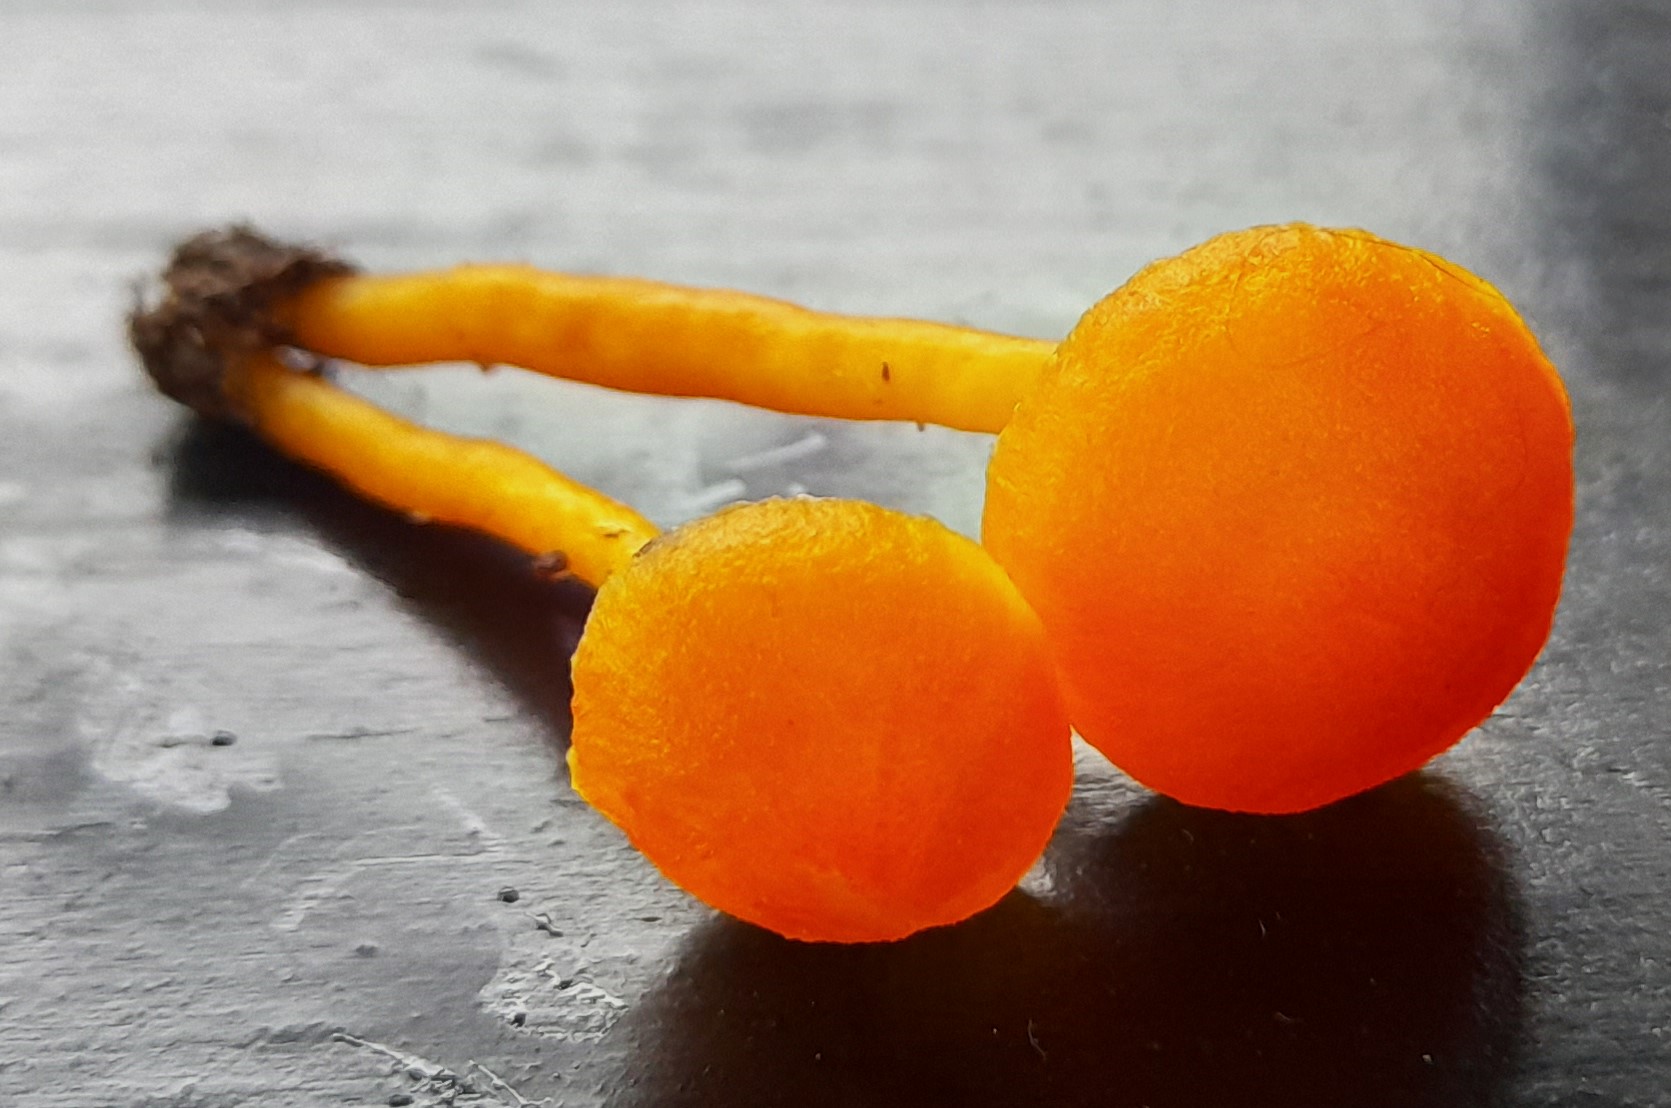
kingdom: Fungi
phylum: Basidiomycota
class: Agaricomycetes
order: Agaricales
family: Hygrophoraceae
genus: Hygrocybe
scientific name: Hygrocybe miniata
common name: mønje-vokshat
